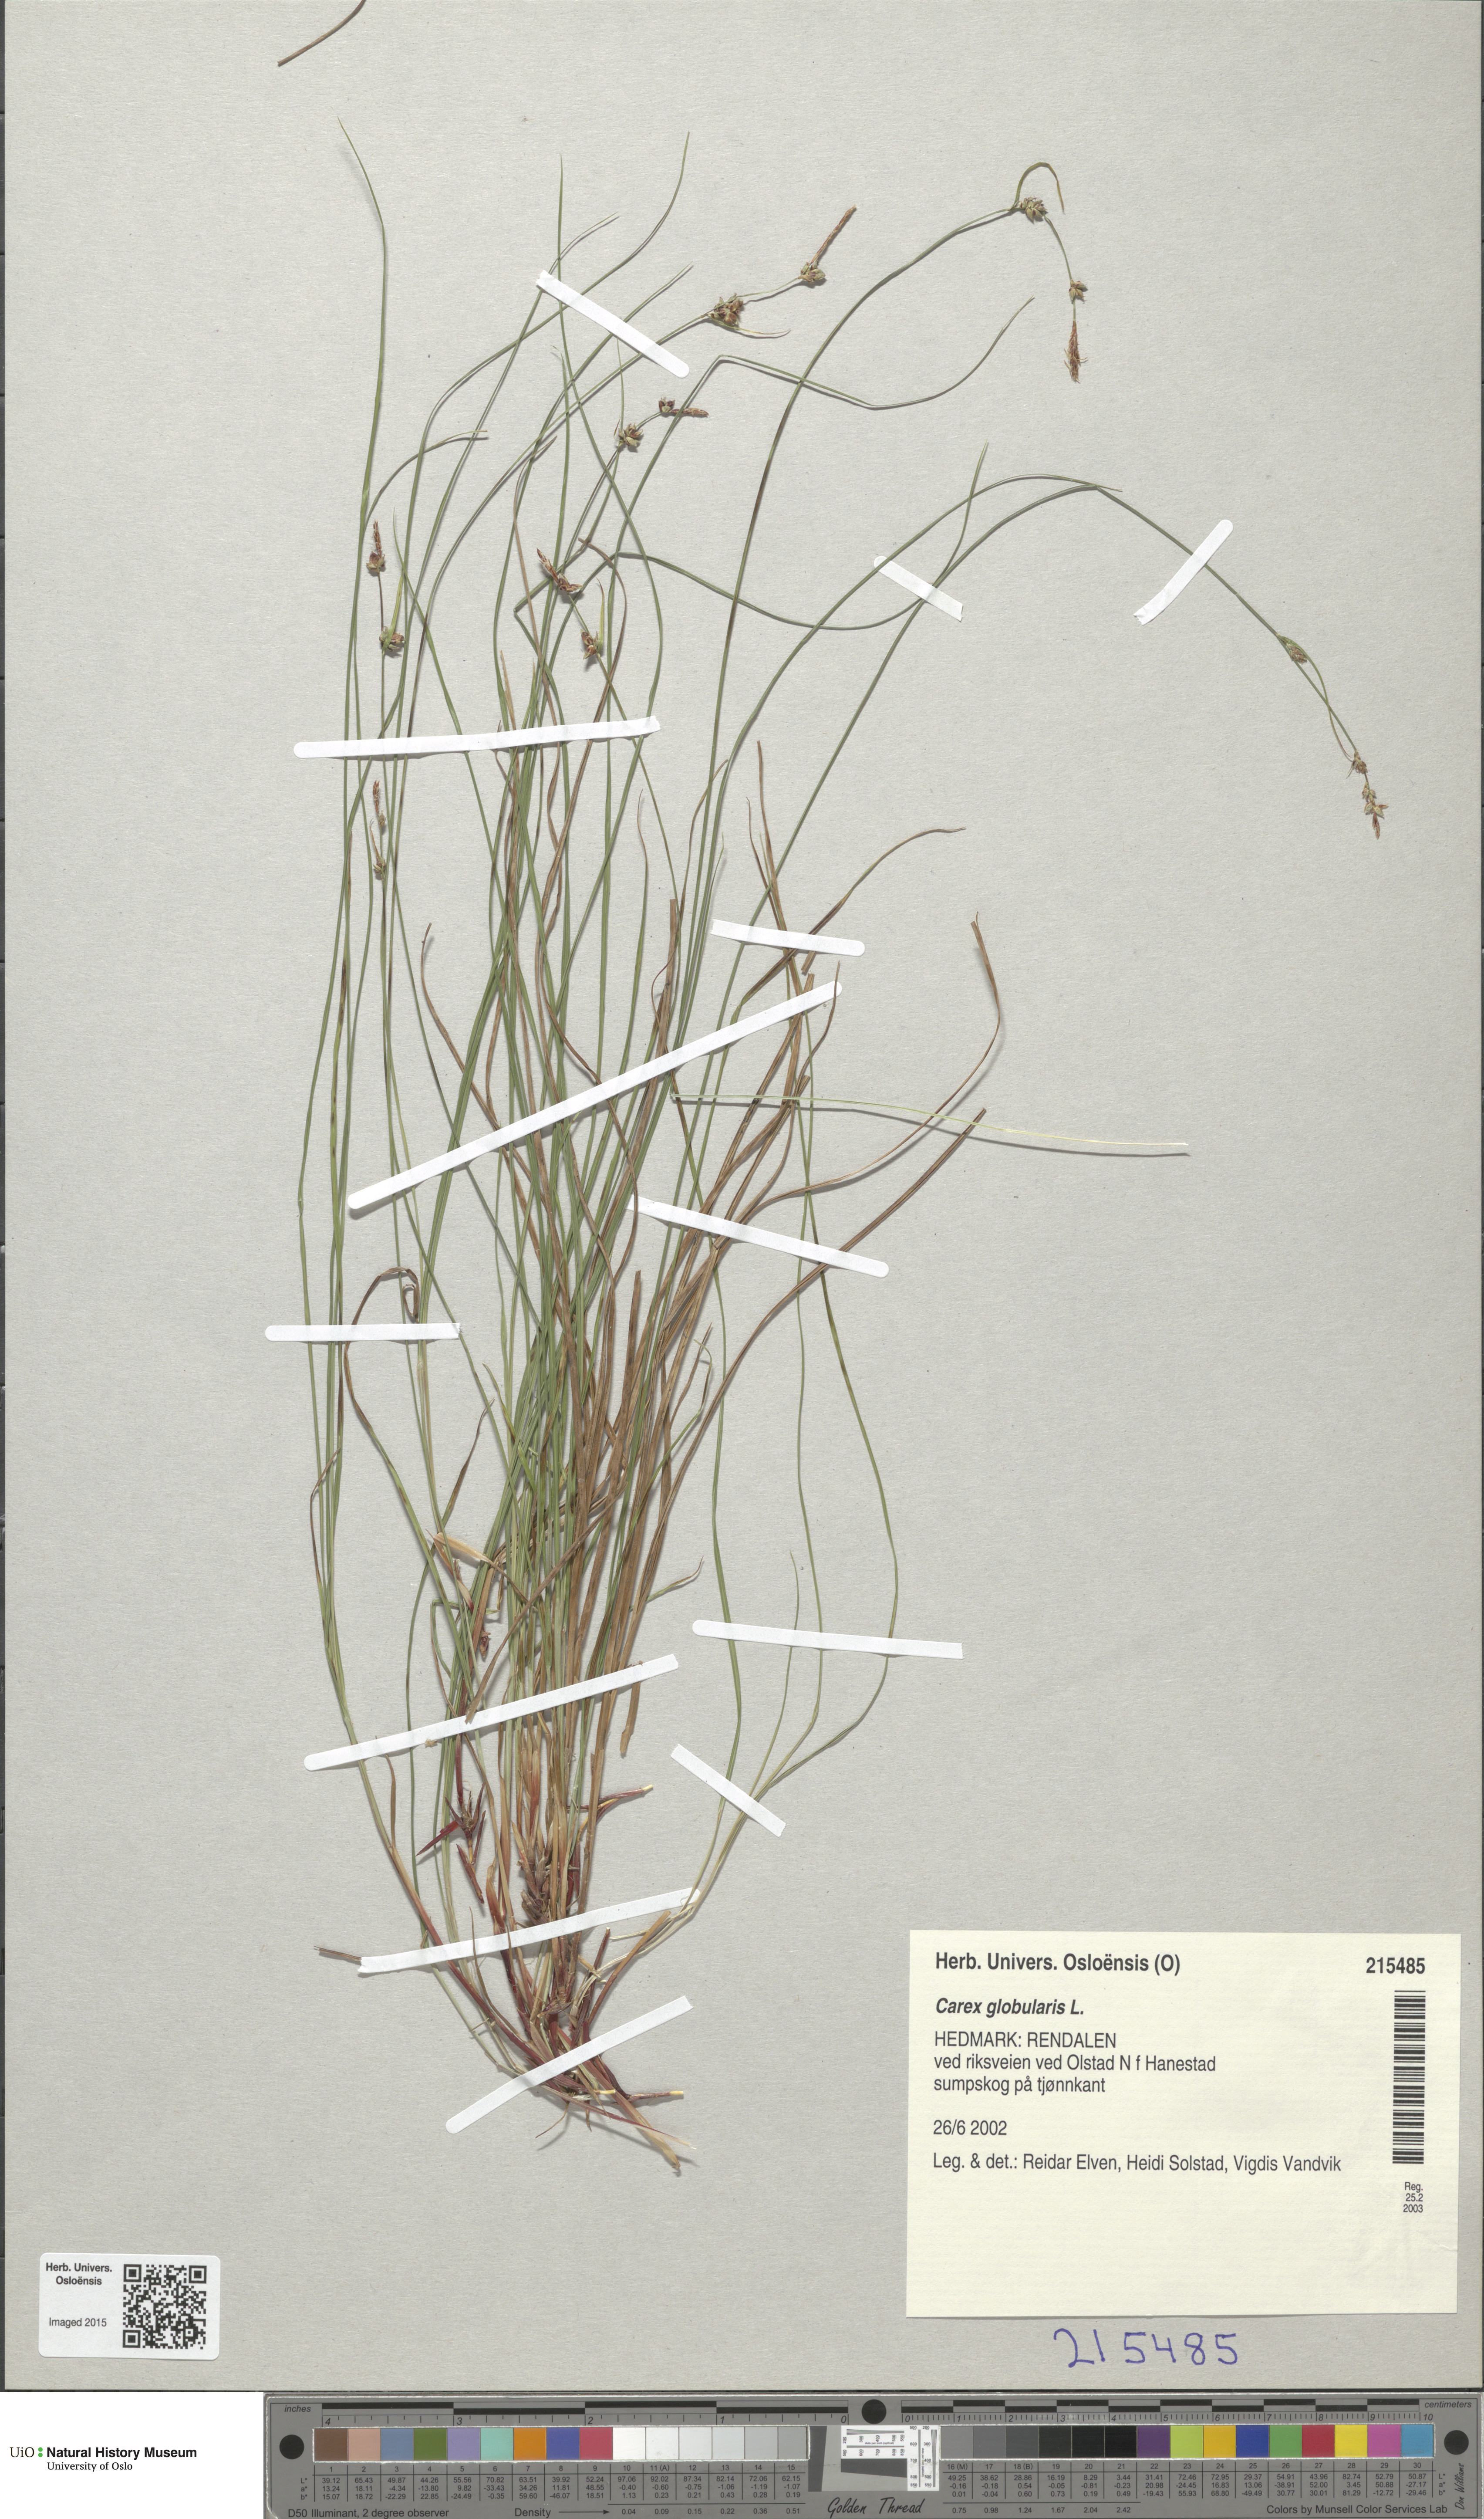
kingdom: Plantae
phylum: Tracheophyta
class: Liliopsida
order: Poales
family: Cyperaceae
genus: Carex
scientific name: Carex globularis
